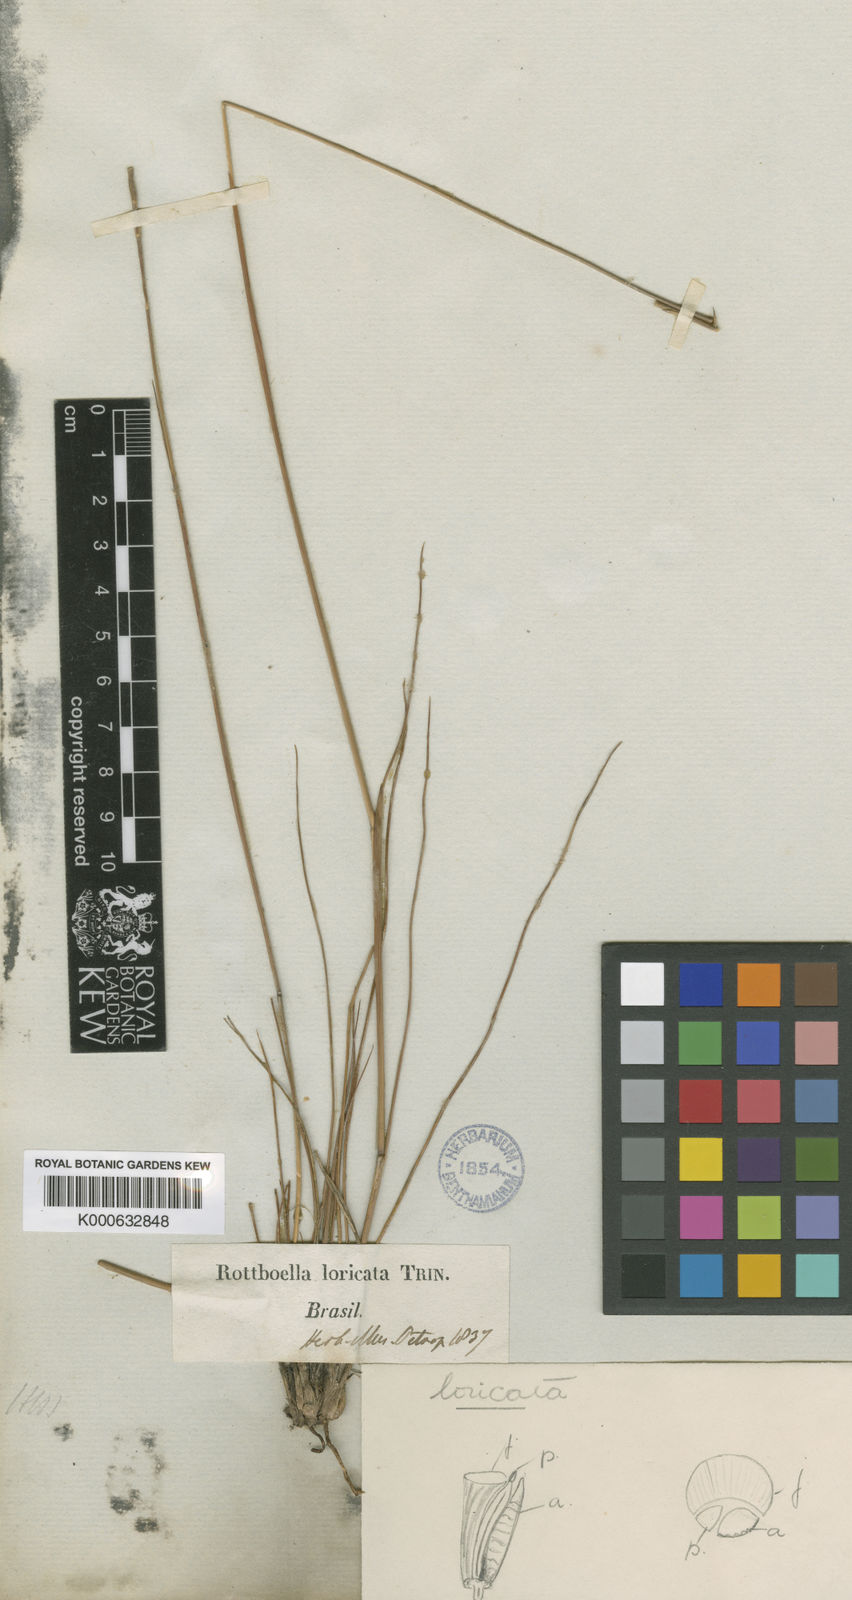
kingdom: Plantae
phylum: Tracheophyta
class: Liliopsida
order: Poales
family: Poaceae
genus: Rhytachne
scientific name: Rhytachne subgibbosa
